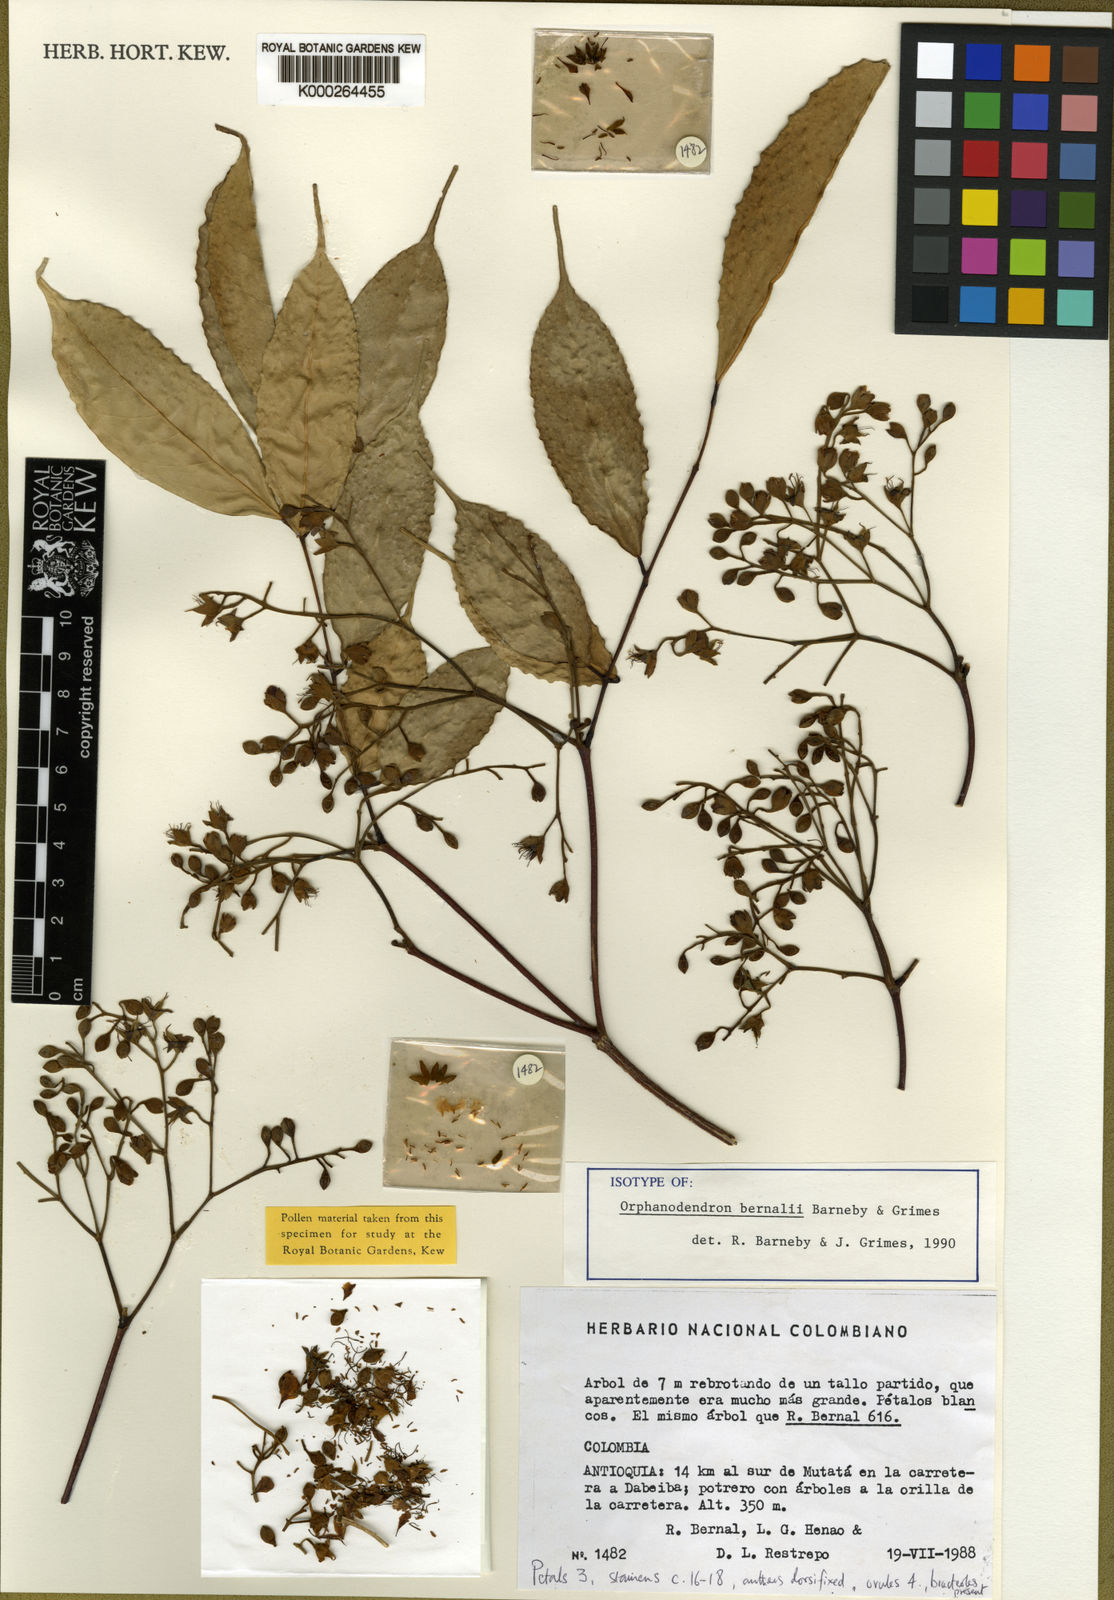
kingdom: Plantae
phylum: Tracheophyta
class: Magnoliopsida
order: Fabales
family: Fabaceae
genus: Orphanodendron
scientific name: Orphanodendron bernalii
